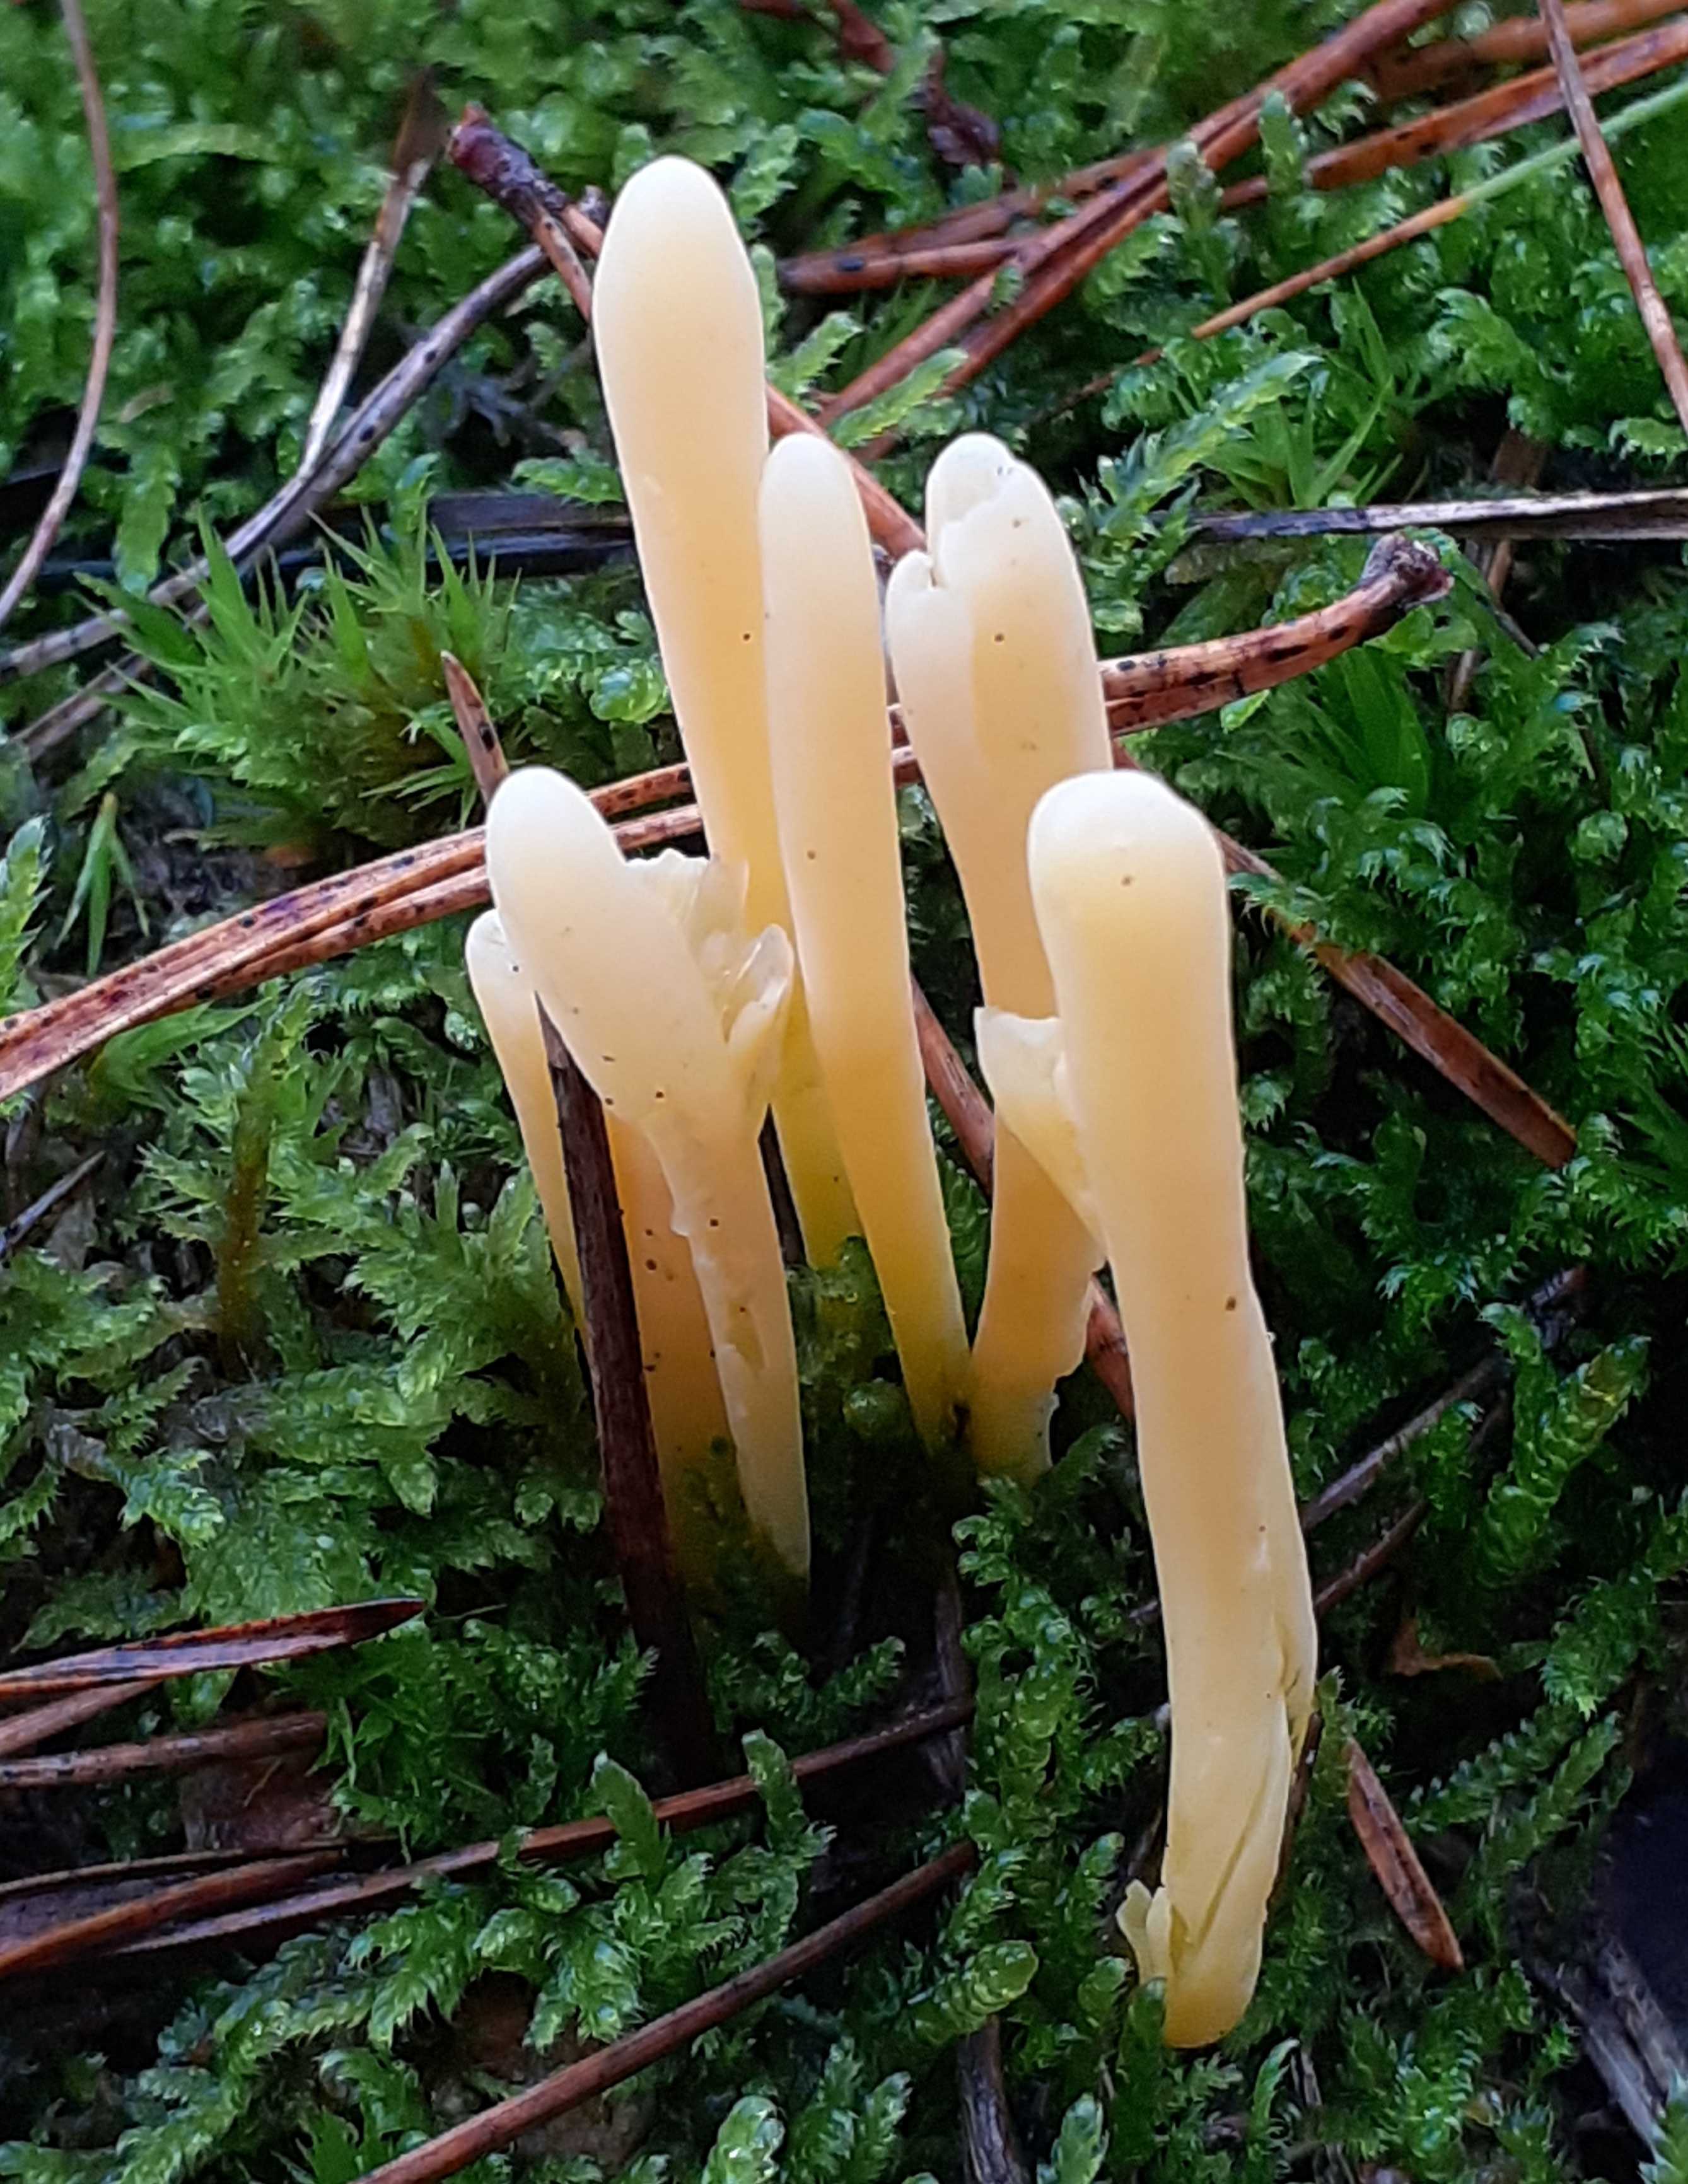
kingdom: Fungi
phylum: Basidiomycota
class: Agaricomycetes
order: Agaricales
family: Clavariaceae
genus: Clavaria
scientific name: Clavaria argillacea
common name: lerfarvet køllesvamp
